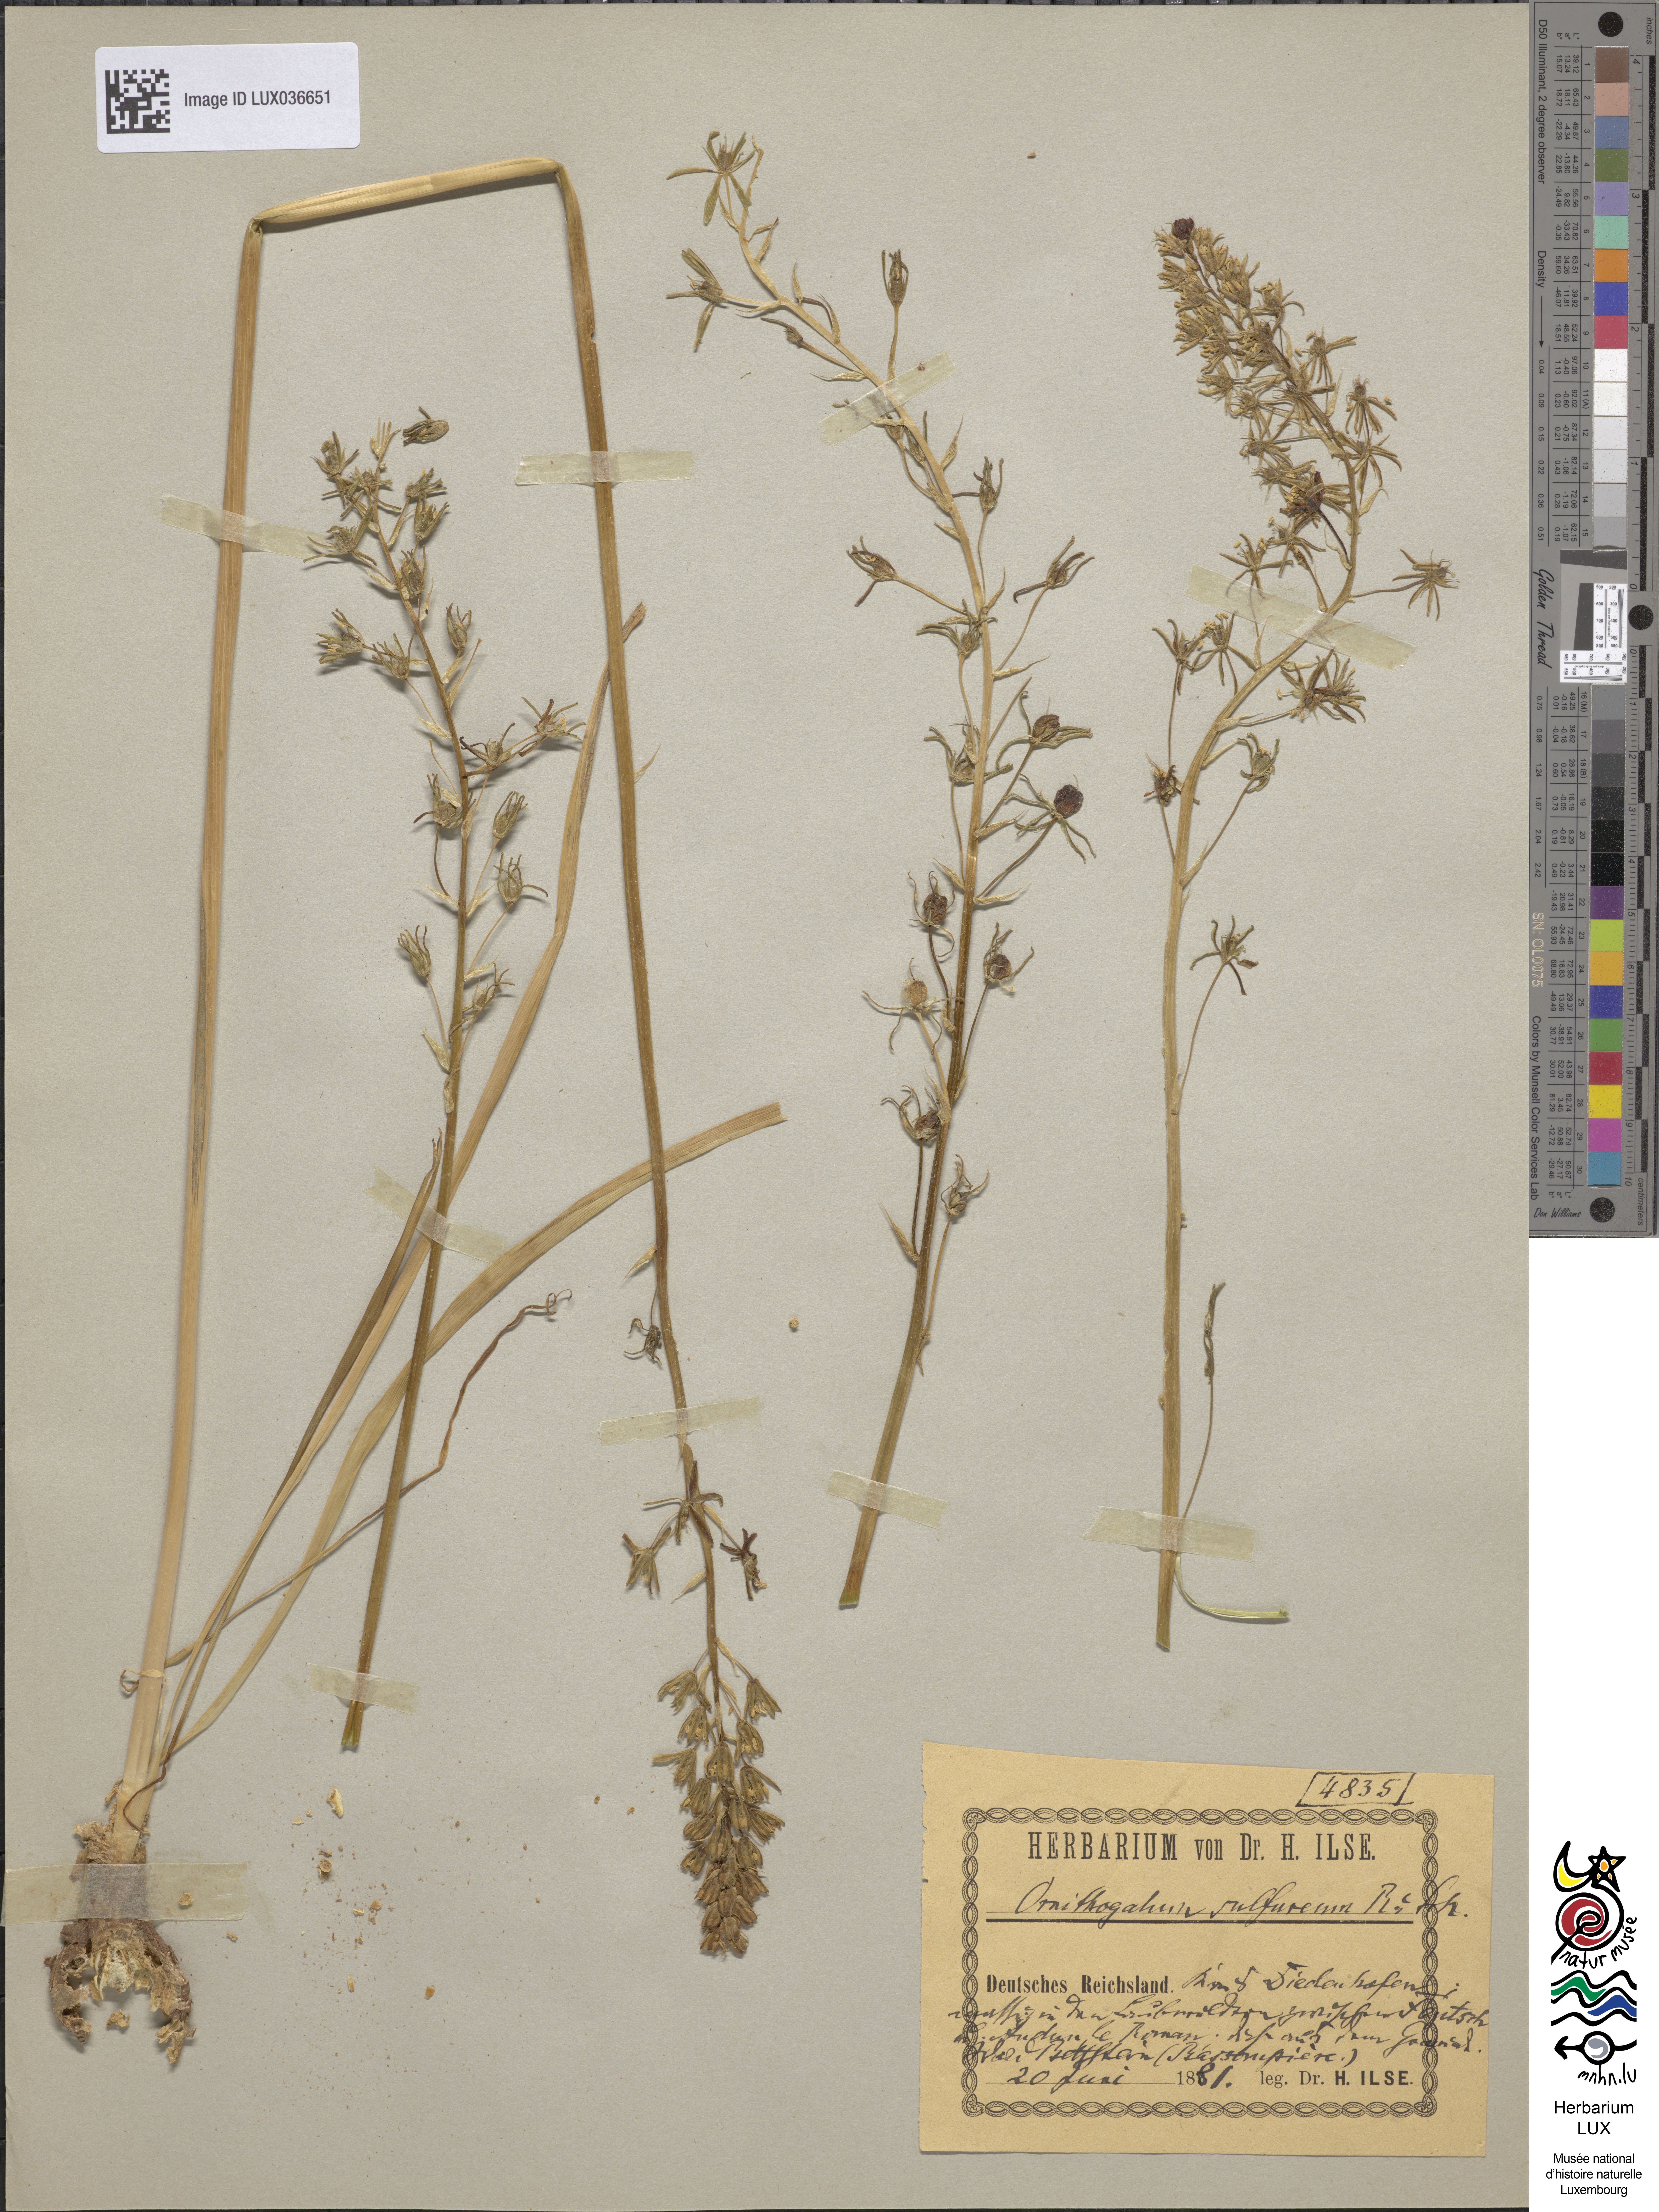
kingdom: Plantae
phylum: Tracheophyta
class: Liliopsida
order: Asparagales
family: Asparagaceae
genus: Ornithogalum
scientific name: Ornithogalum pyrenaicum
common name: Spiked star-of-bethlehem
